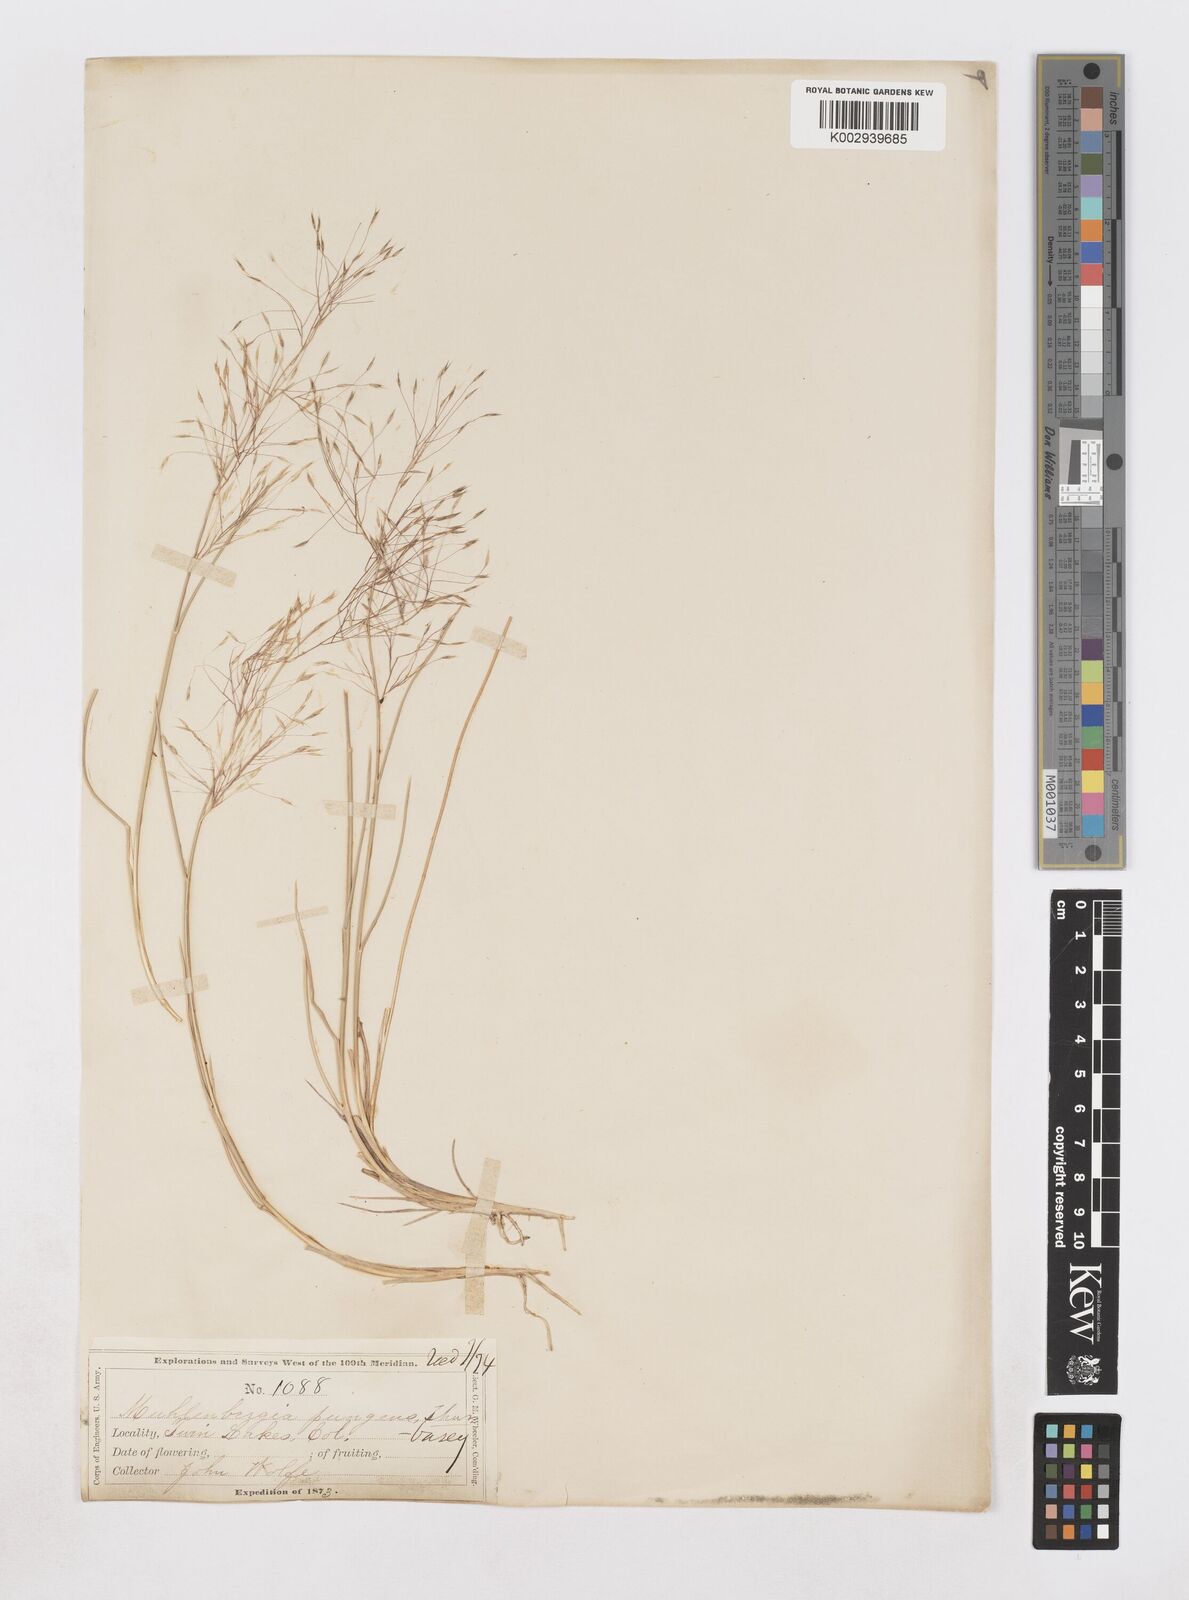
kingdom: Plantae
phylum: Tracheophyta
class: Liliopsida
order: Poales
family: Poaceae
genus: Muhlenbergia
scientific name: Muhlenbergia pungens
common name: Sandhill muhly
